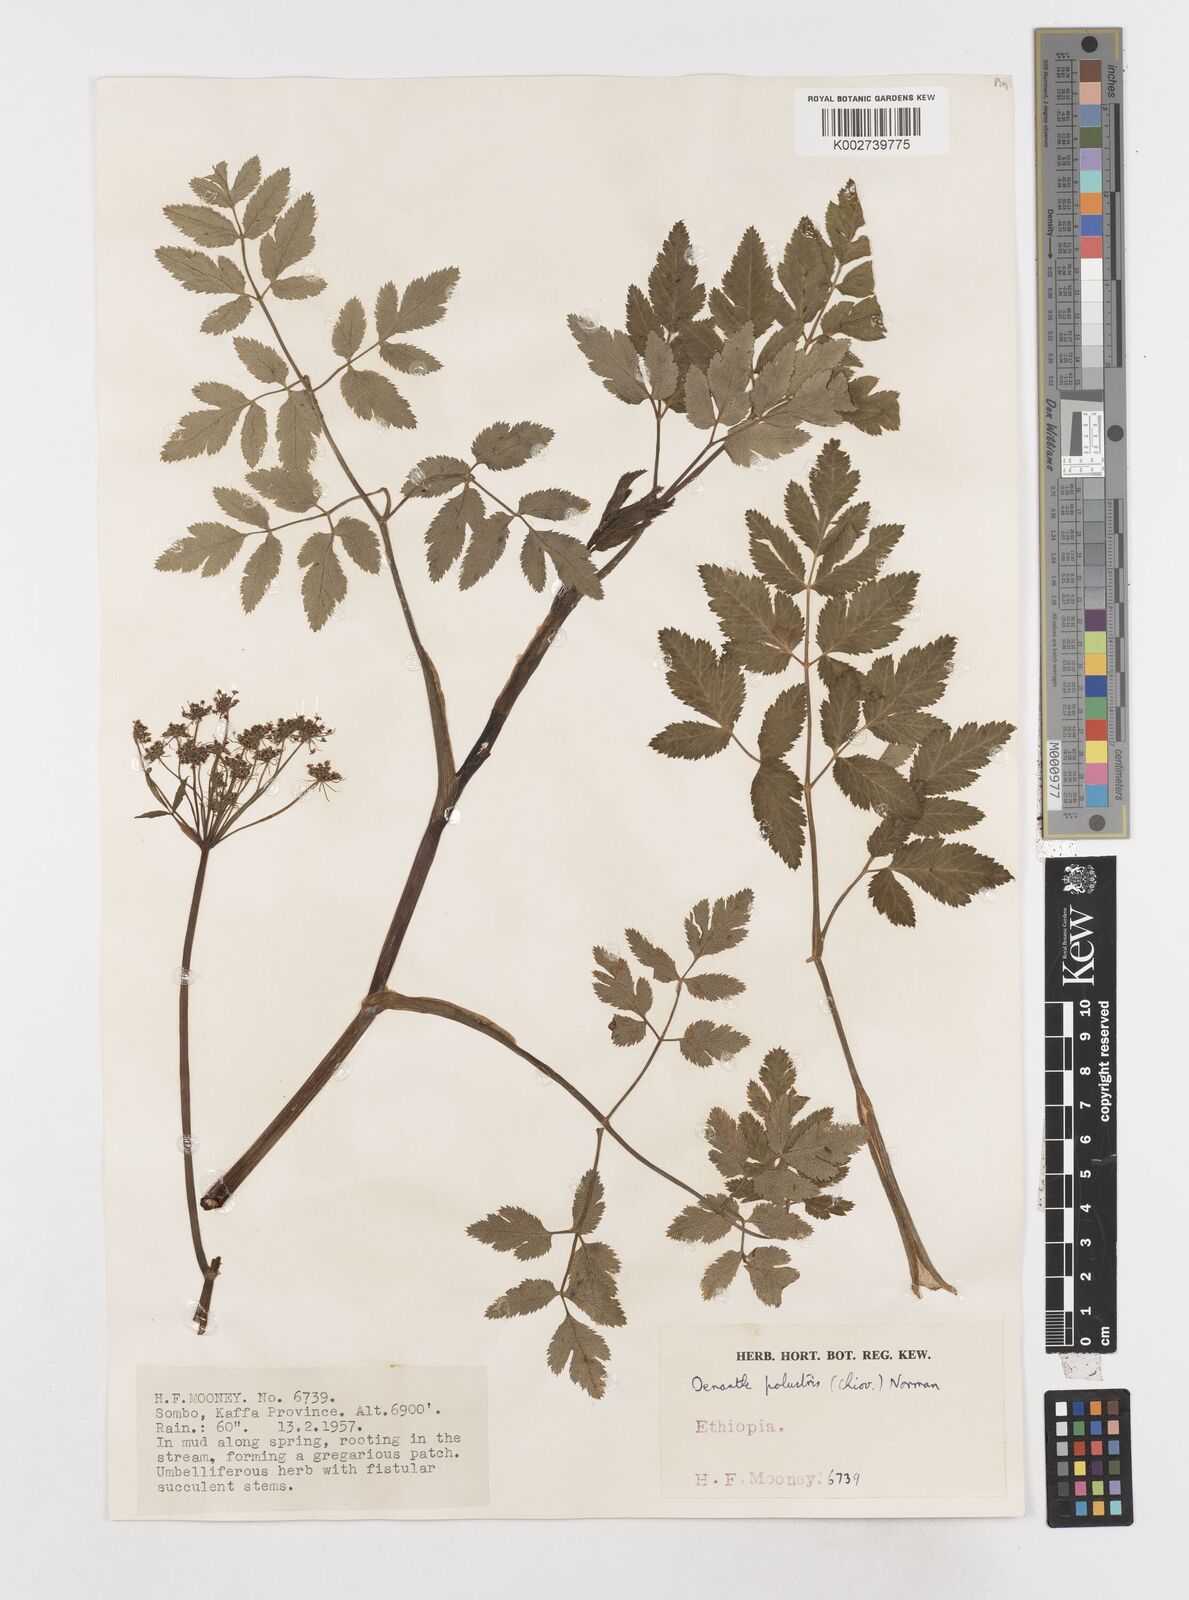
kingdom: Plantae
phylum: Tracheophyta
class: Magnoliopsida
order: Apiales
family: Apiaceae
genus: Oenanthe
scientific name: Oenanthe palustris
